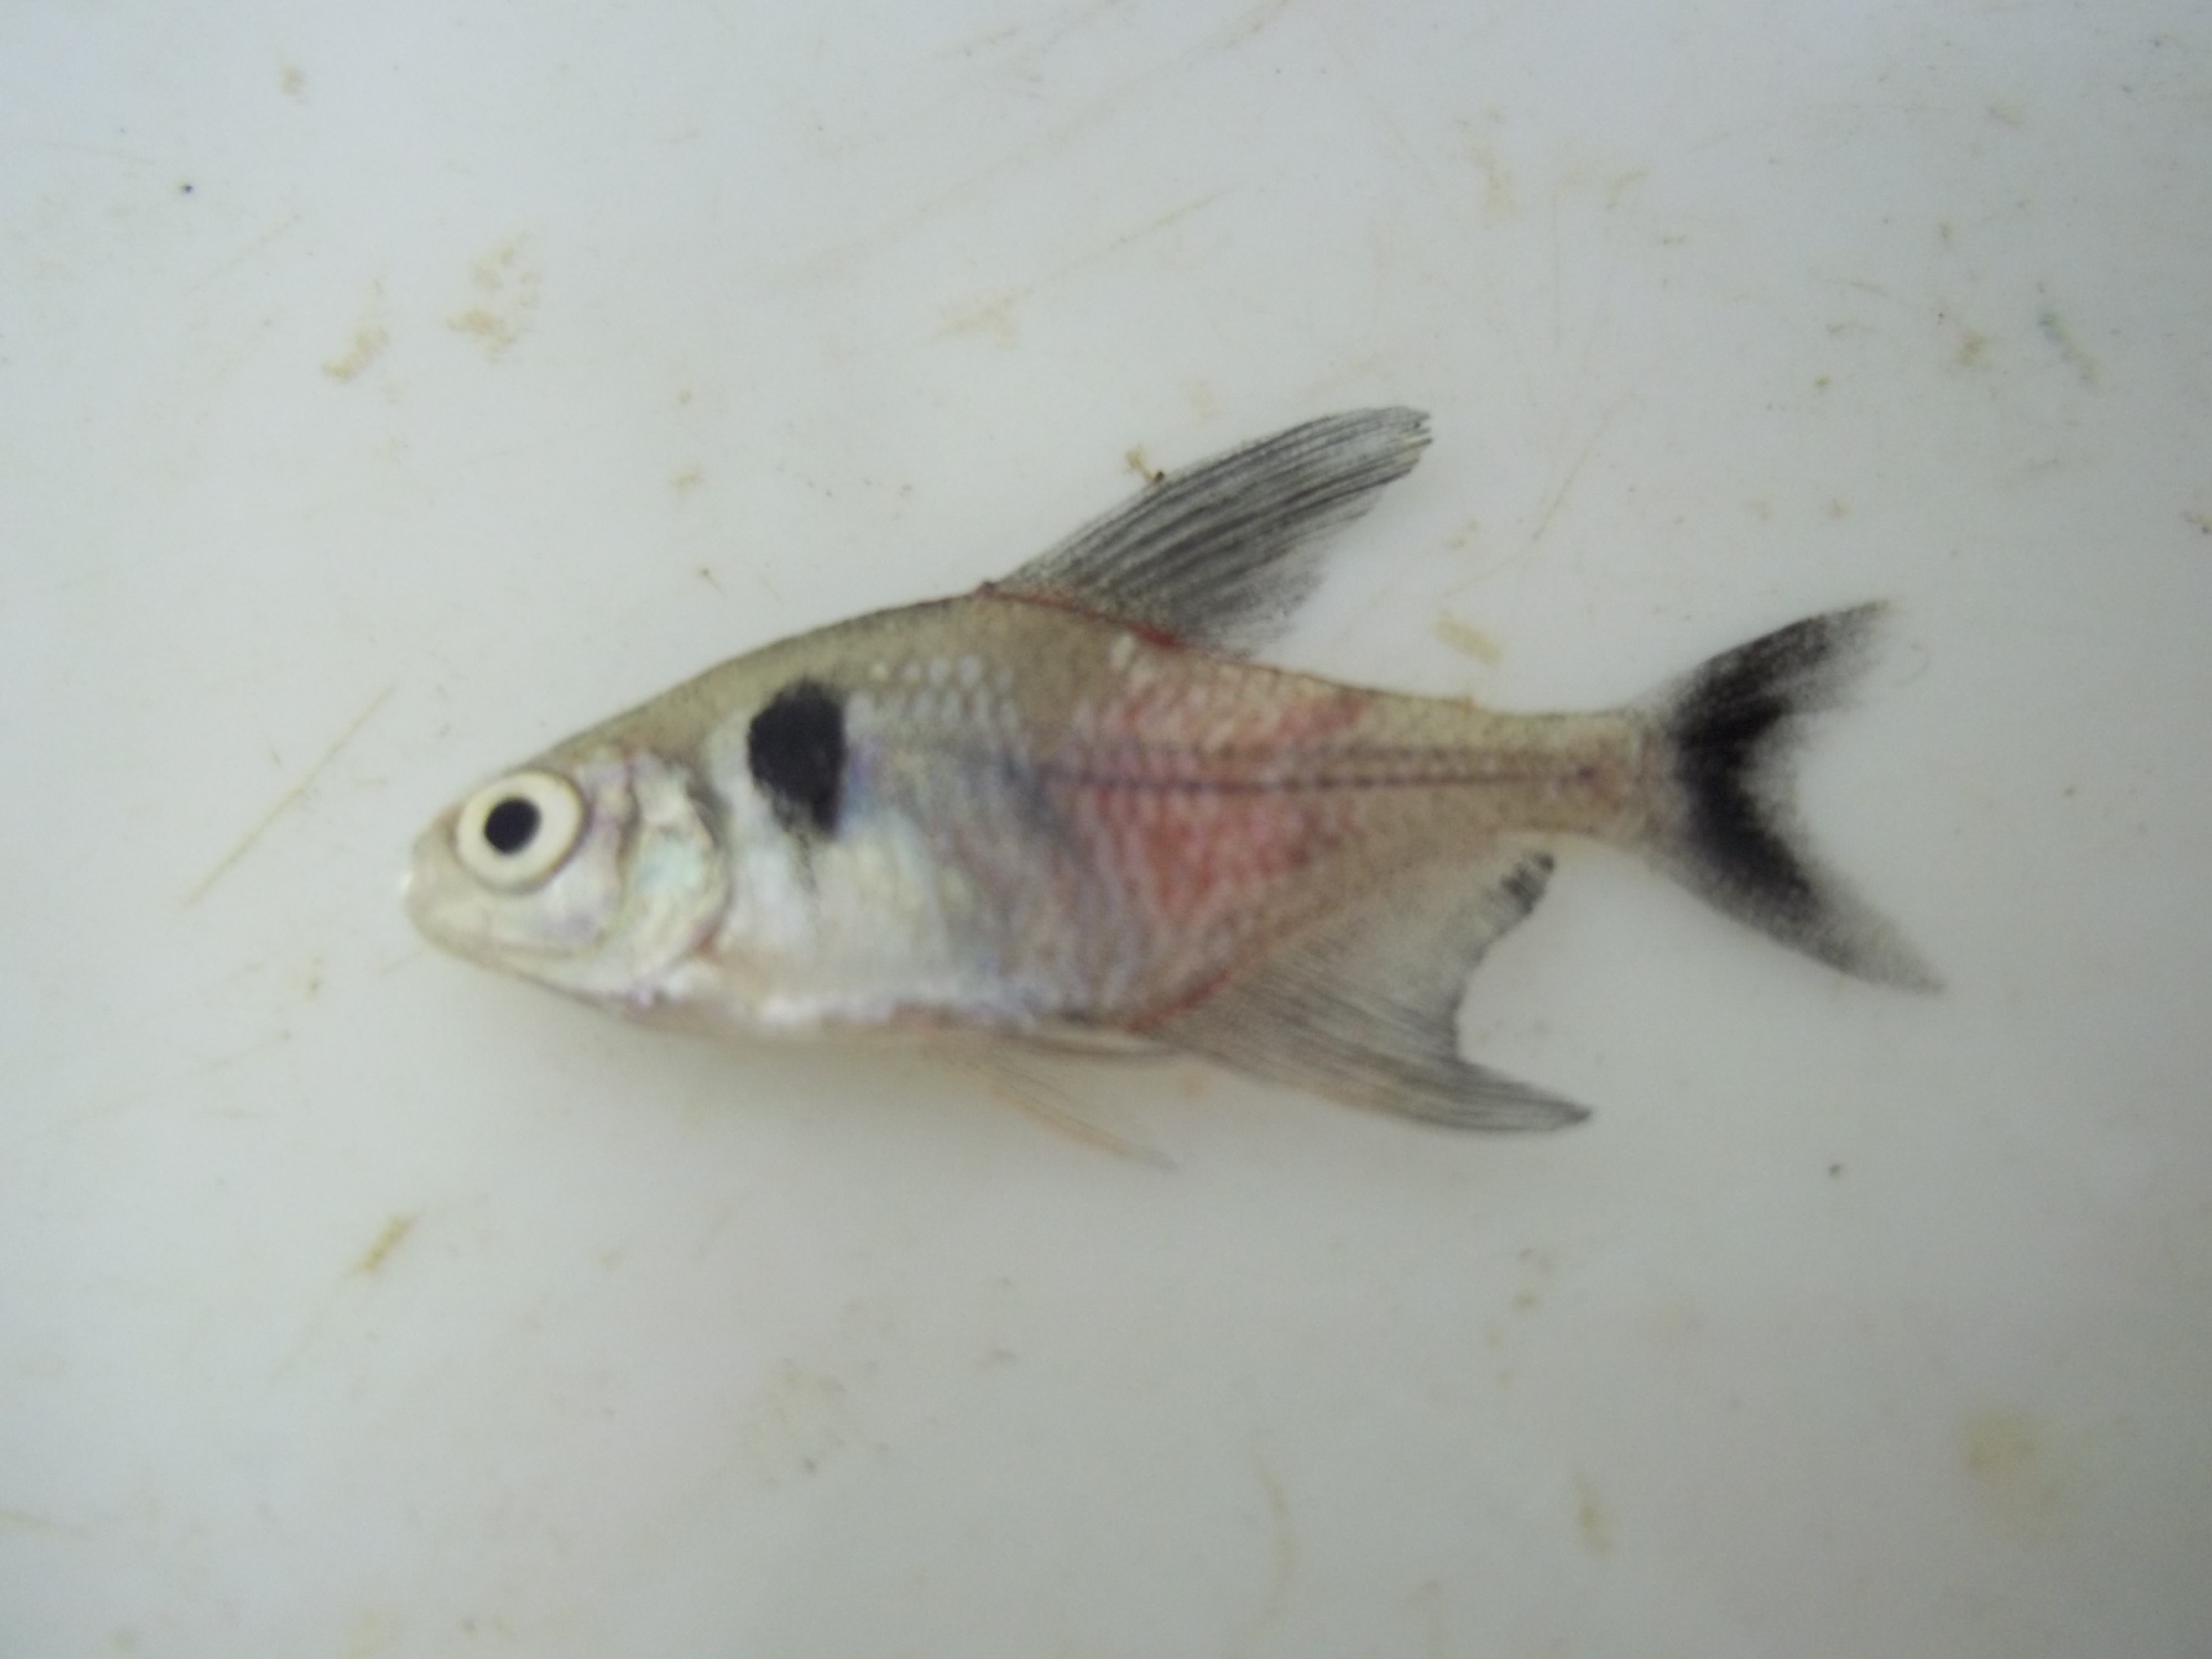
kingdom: Animalia
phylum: Chordata
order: Characiformes
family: Characidae
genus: Hyphessobrycon
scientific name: Hyphessobrycon megalopterus
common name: Black phantom tetra
